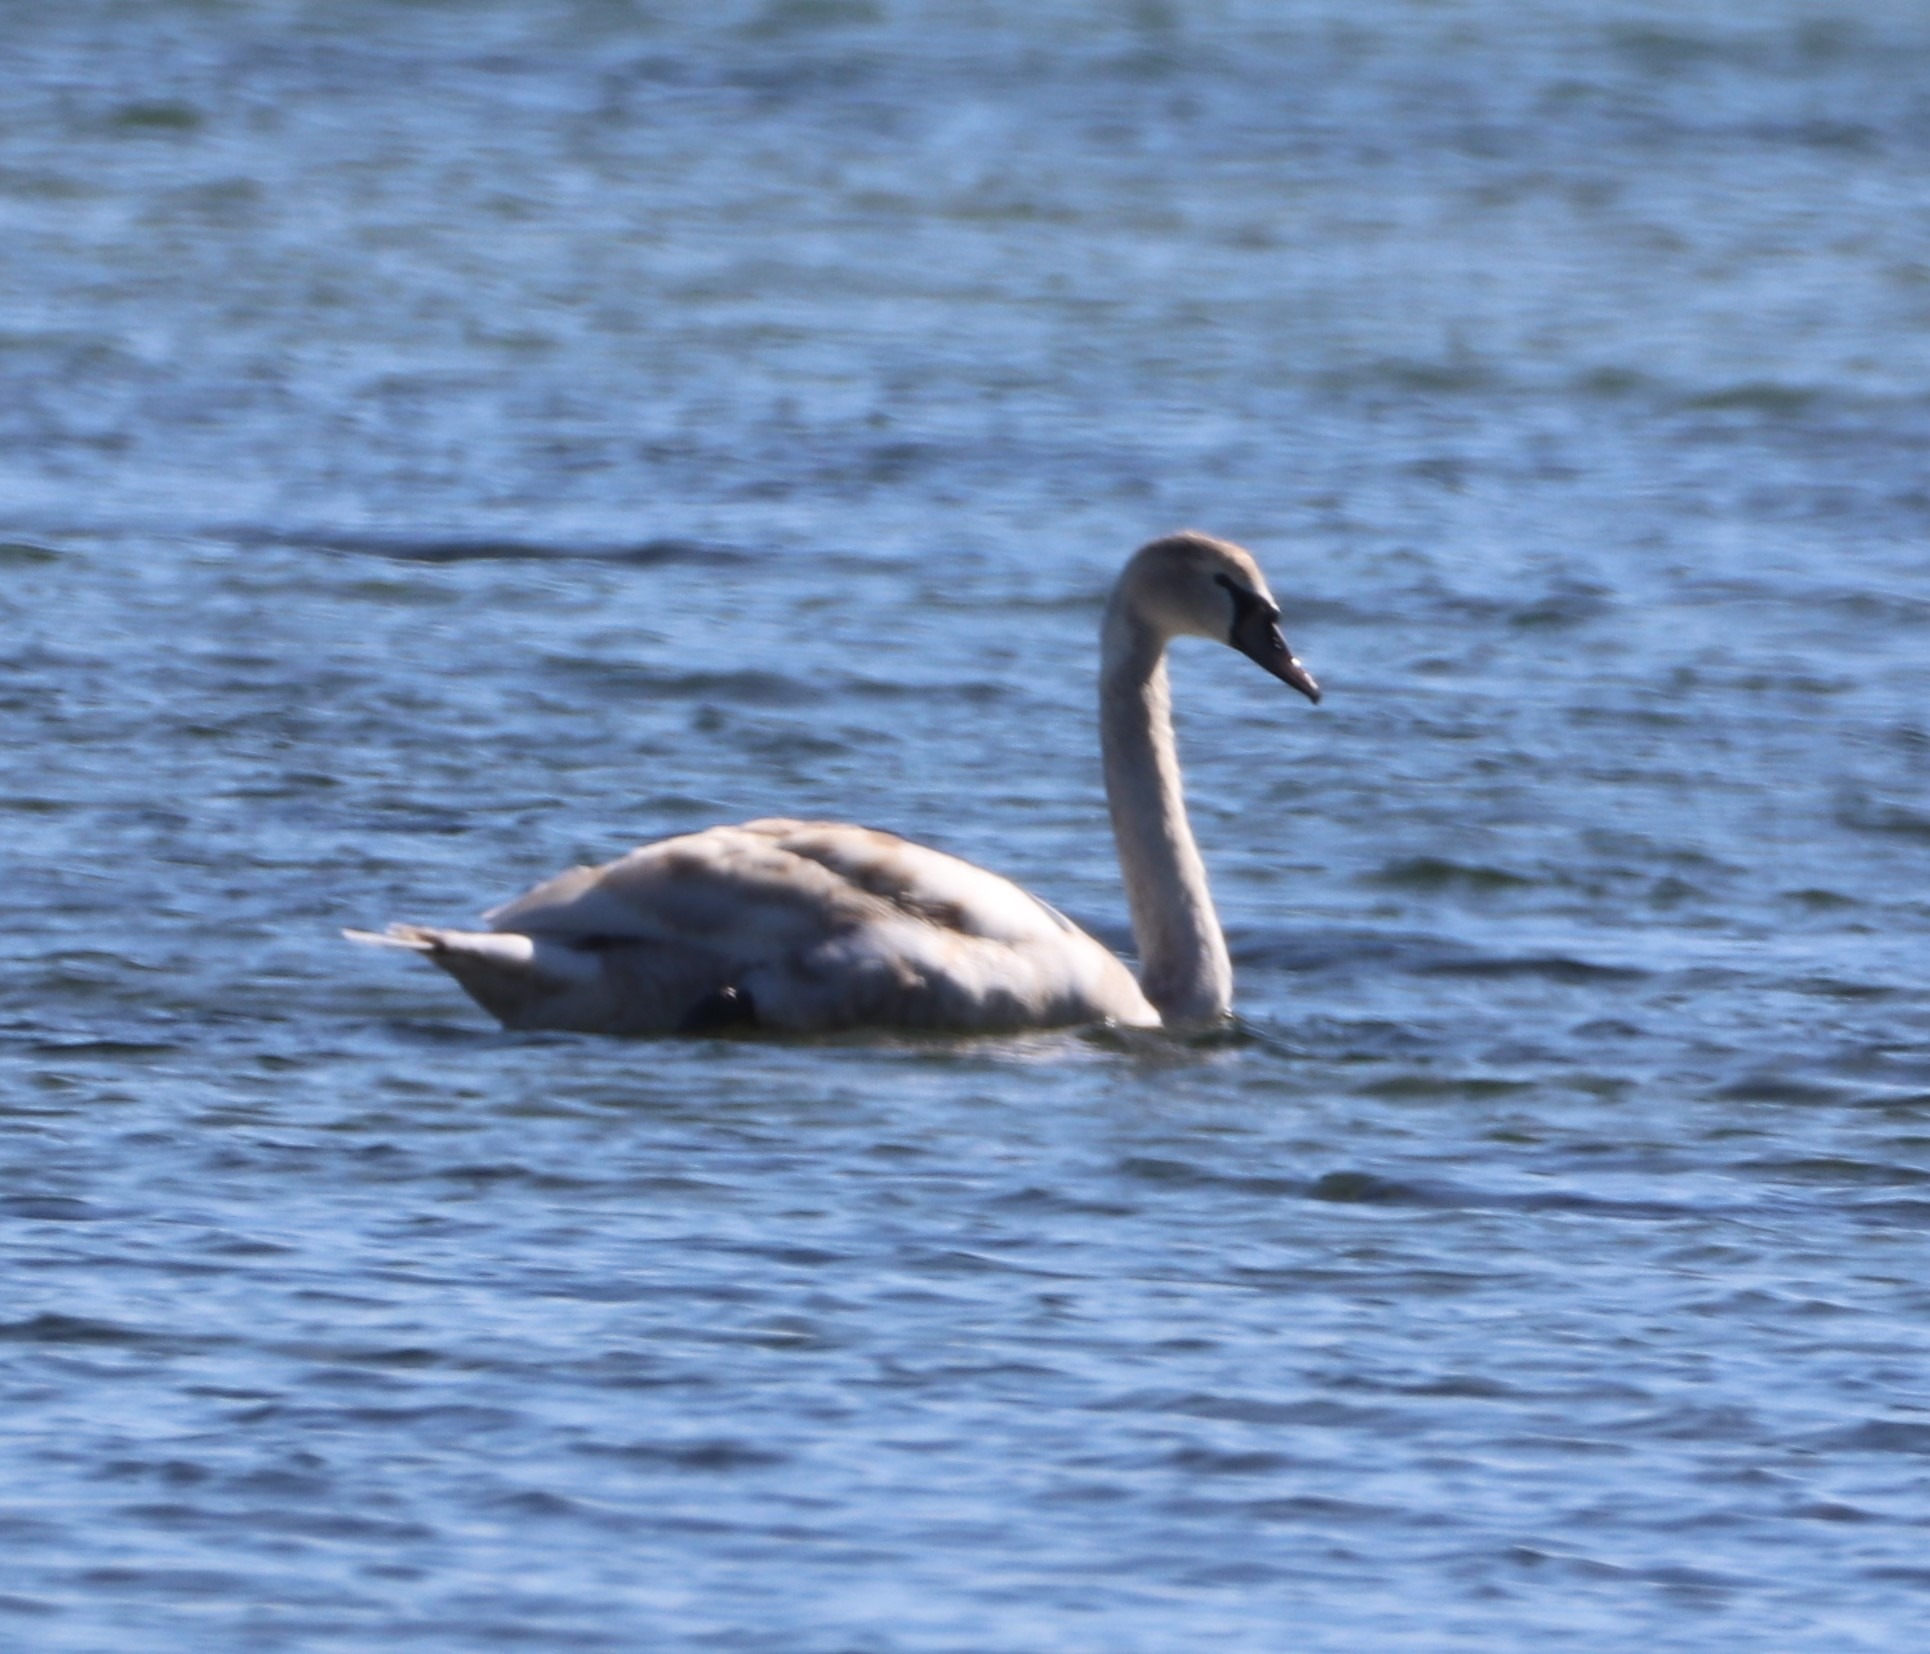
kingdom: Animalia
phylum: Chordata
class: Aves
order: Anseriformes
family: Anatidae
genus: Cygnus
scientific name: Cygnus olor
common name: Knopsvane
